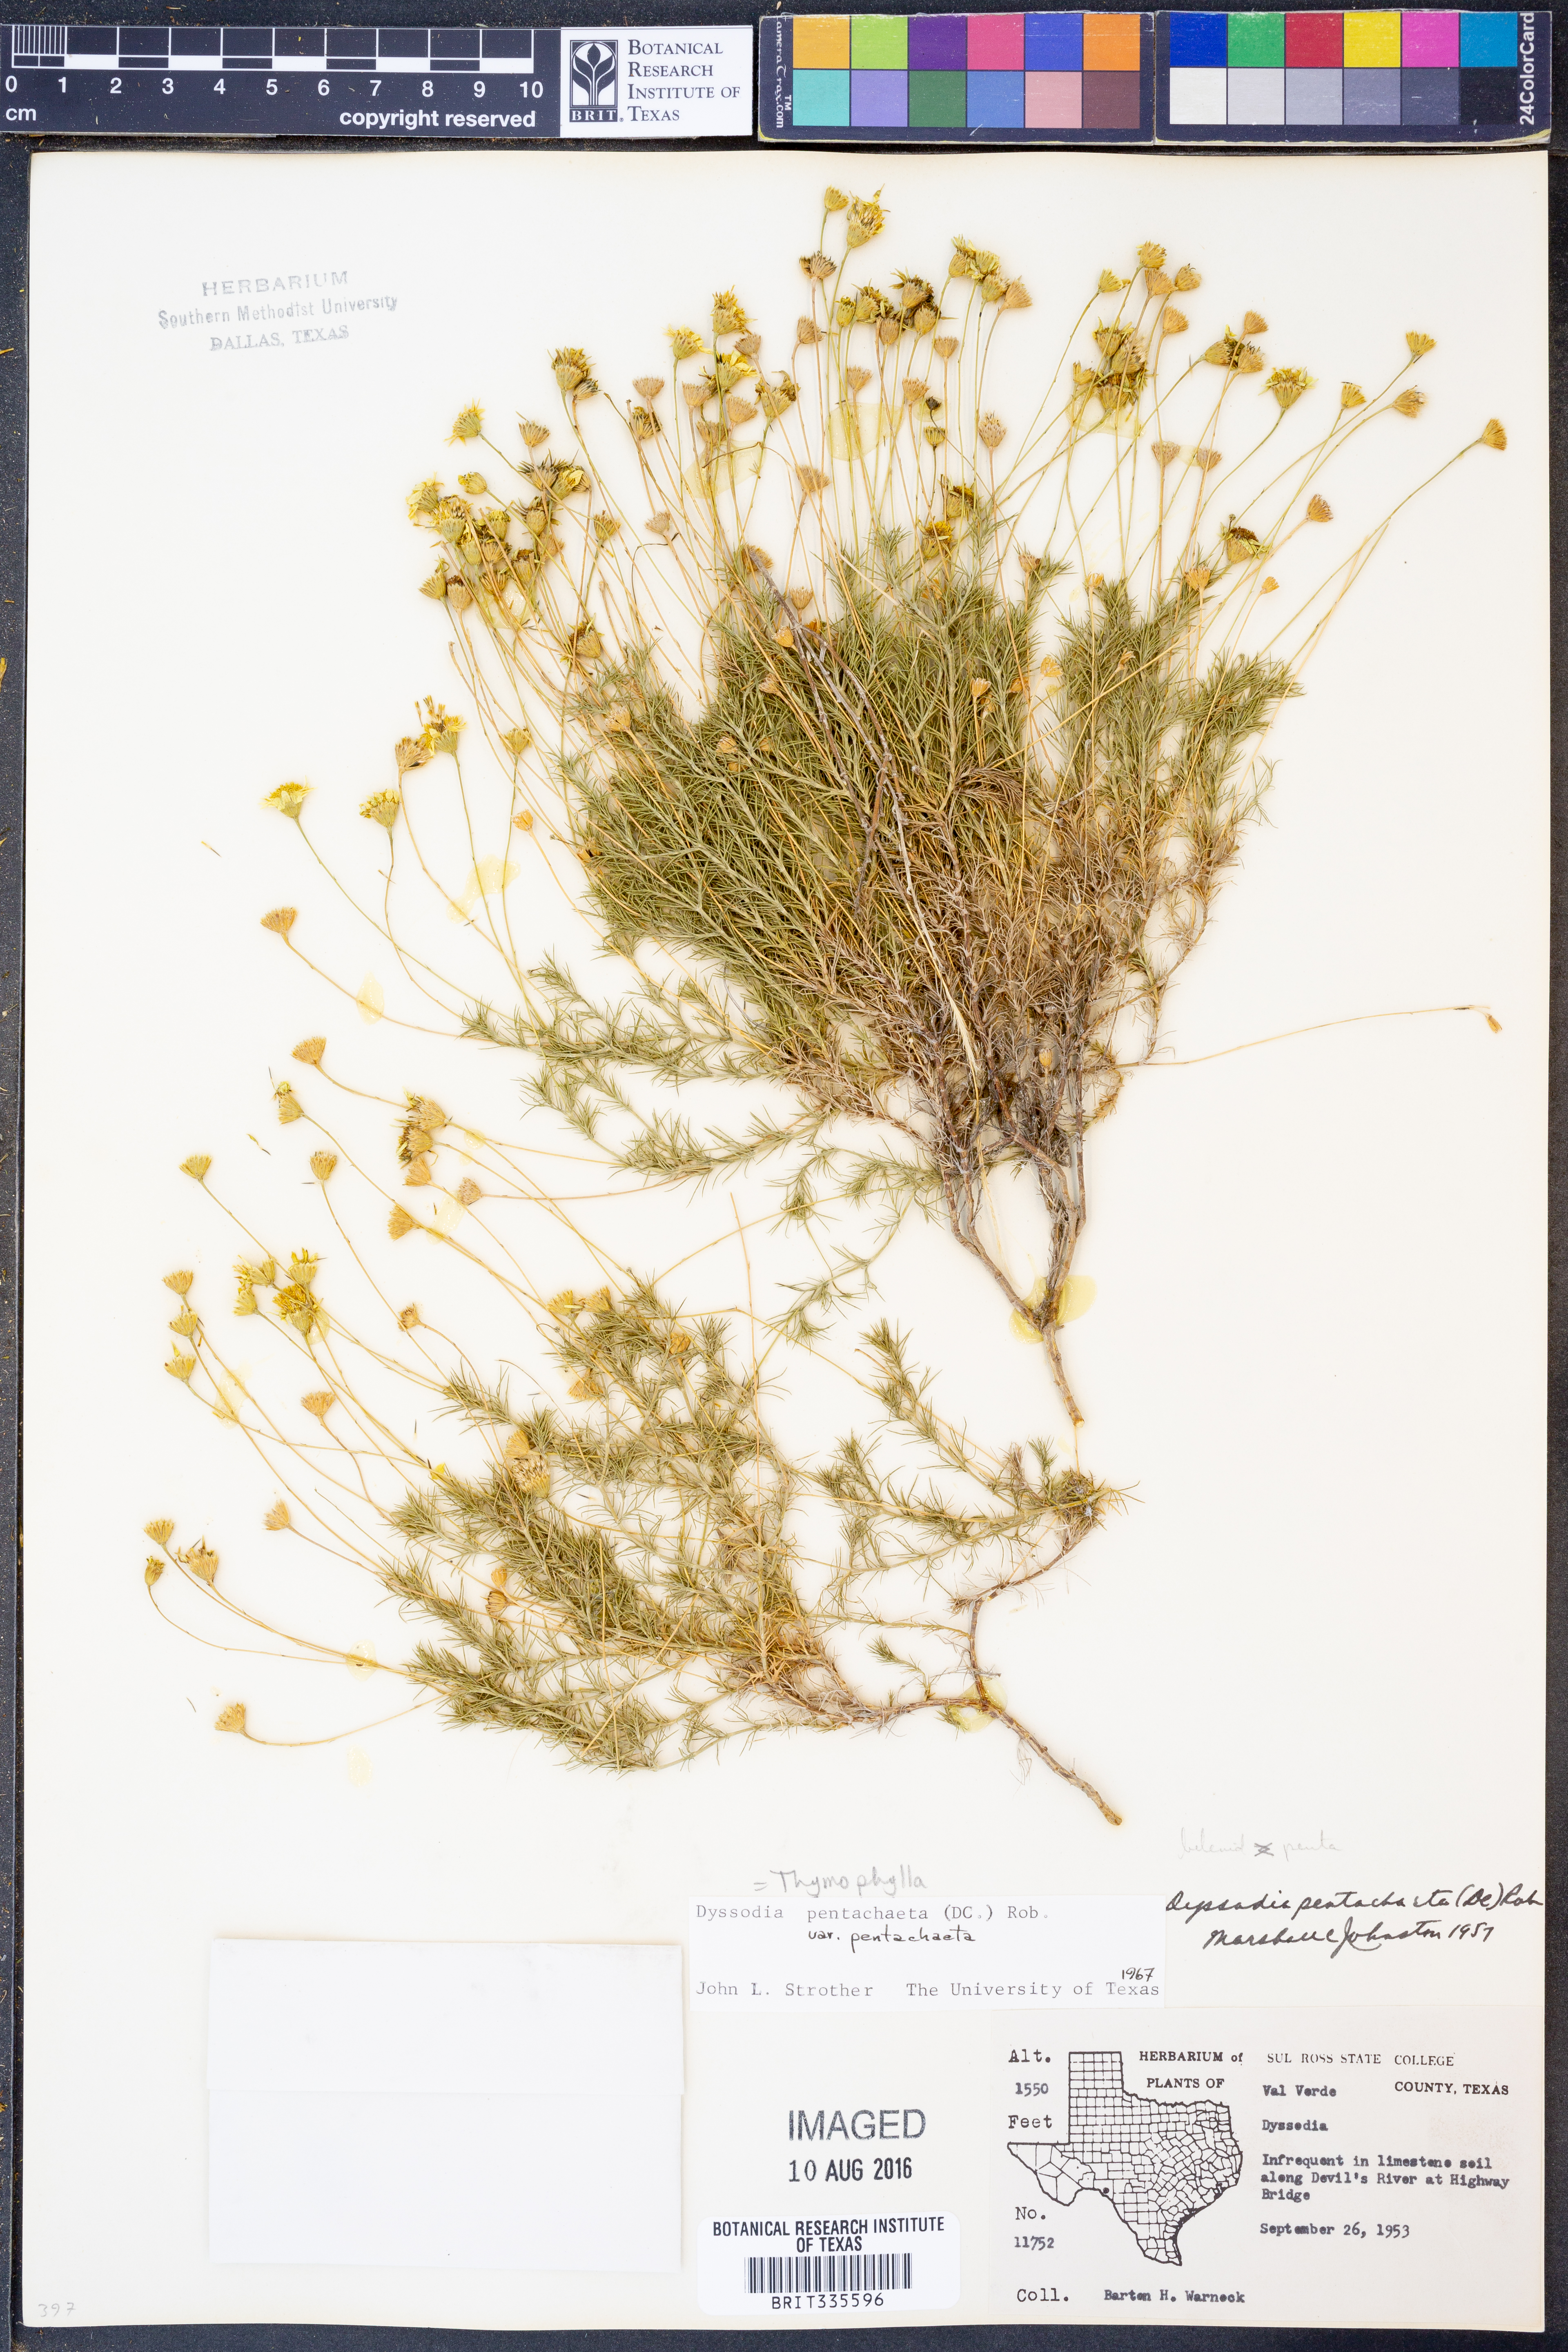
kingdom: Plantae
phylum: Tracheophyta
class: Magnoliopsida
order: Asterales
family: Asteraceae
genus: Thymophylla
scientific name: Thymophylla pentachaeta
